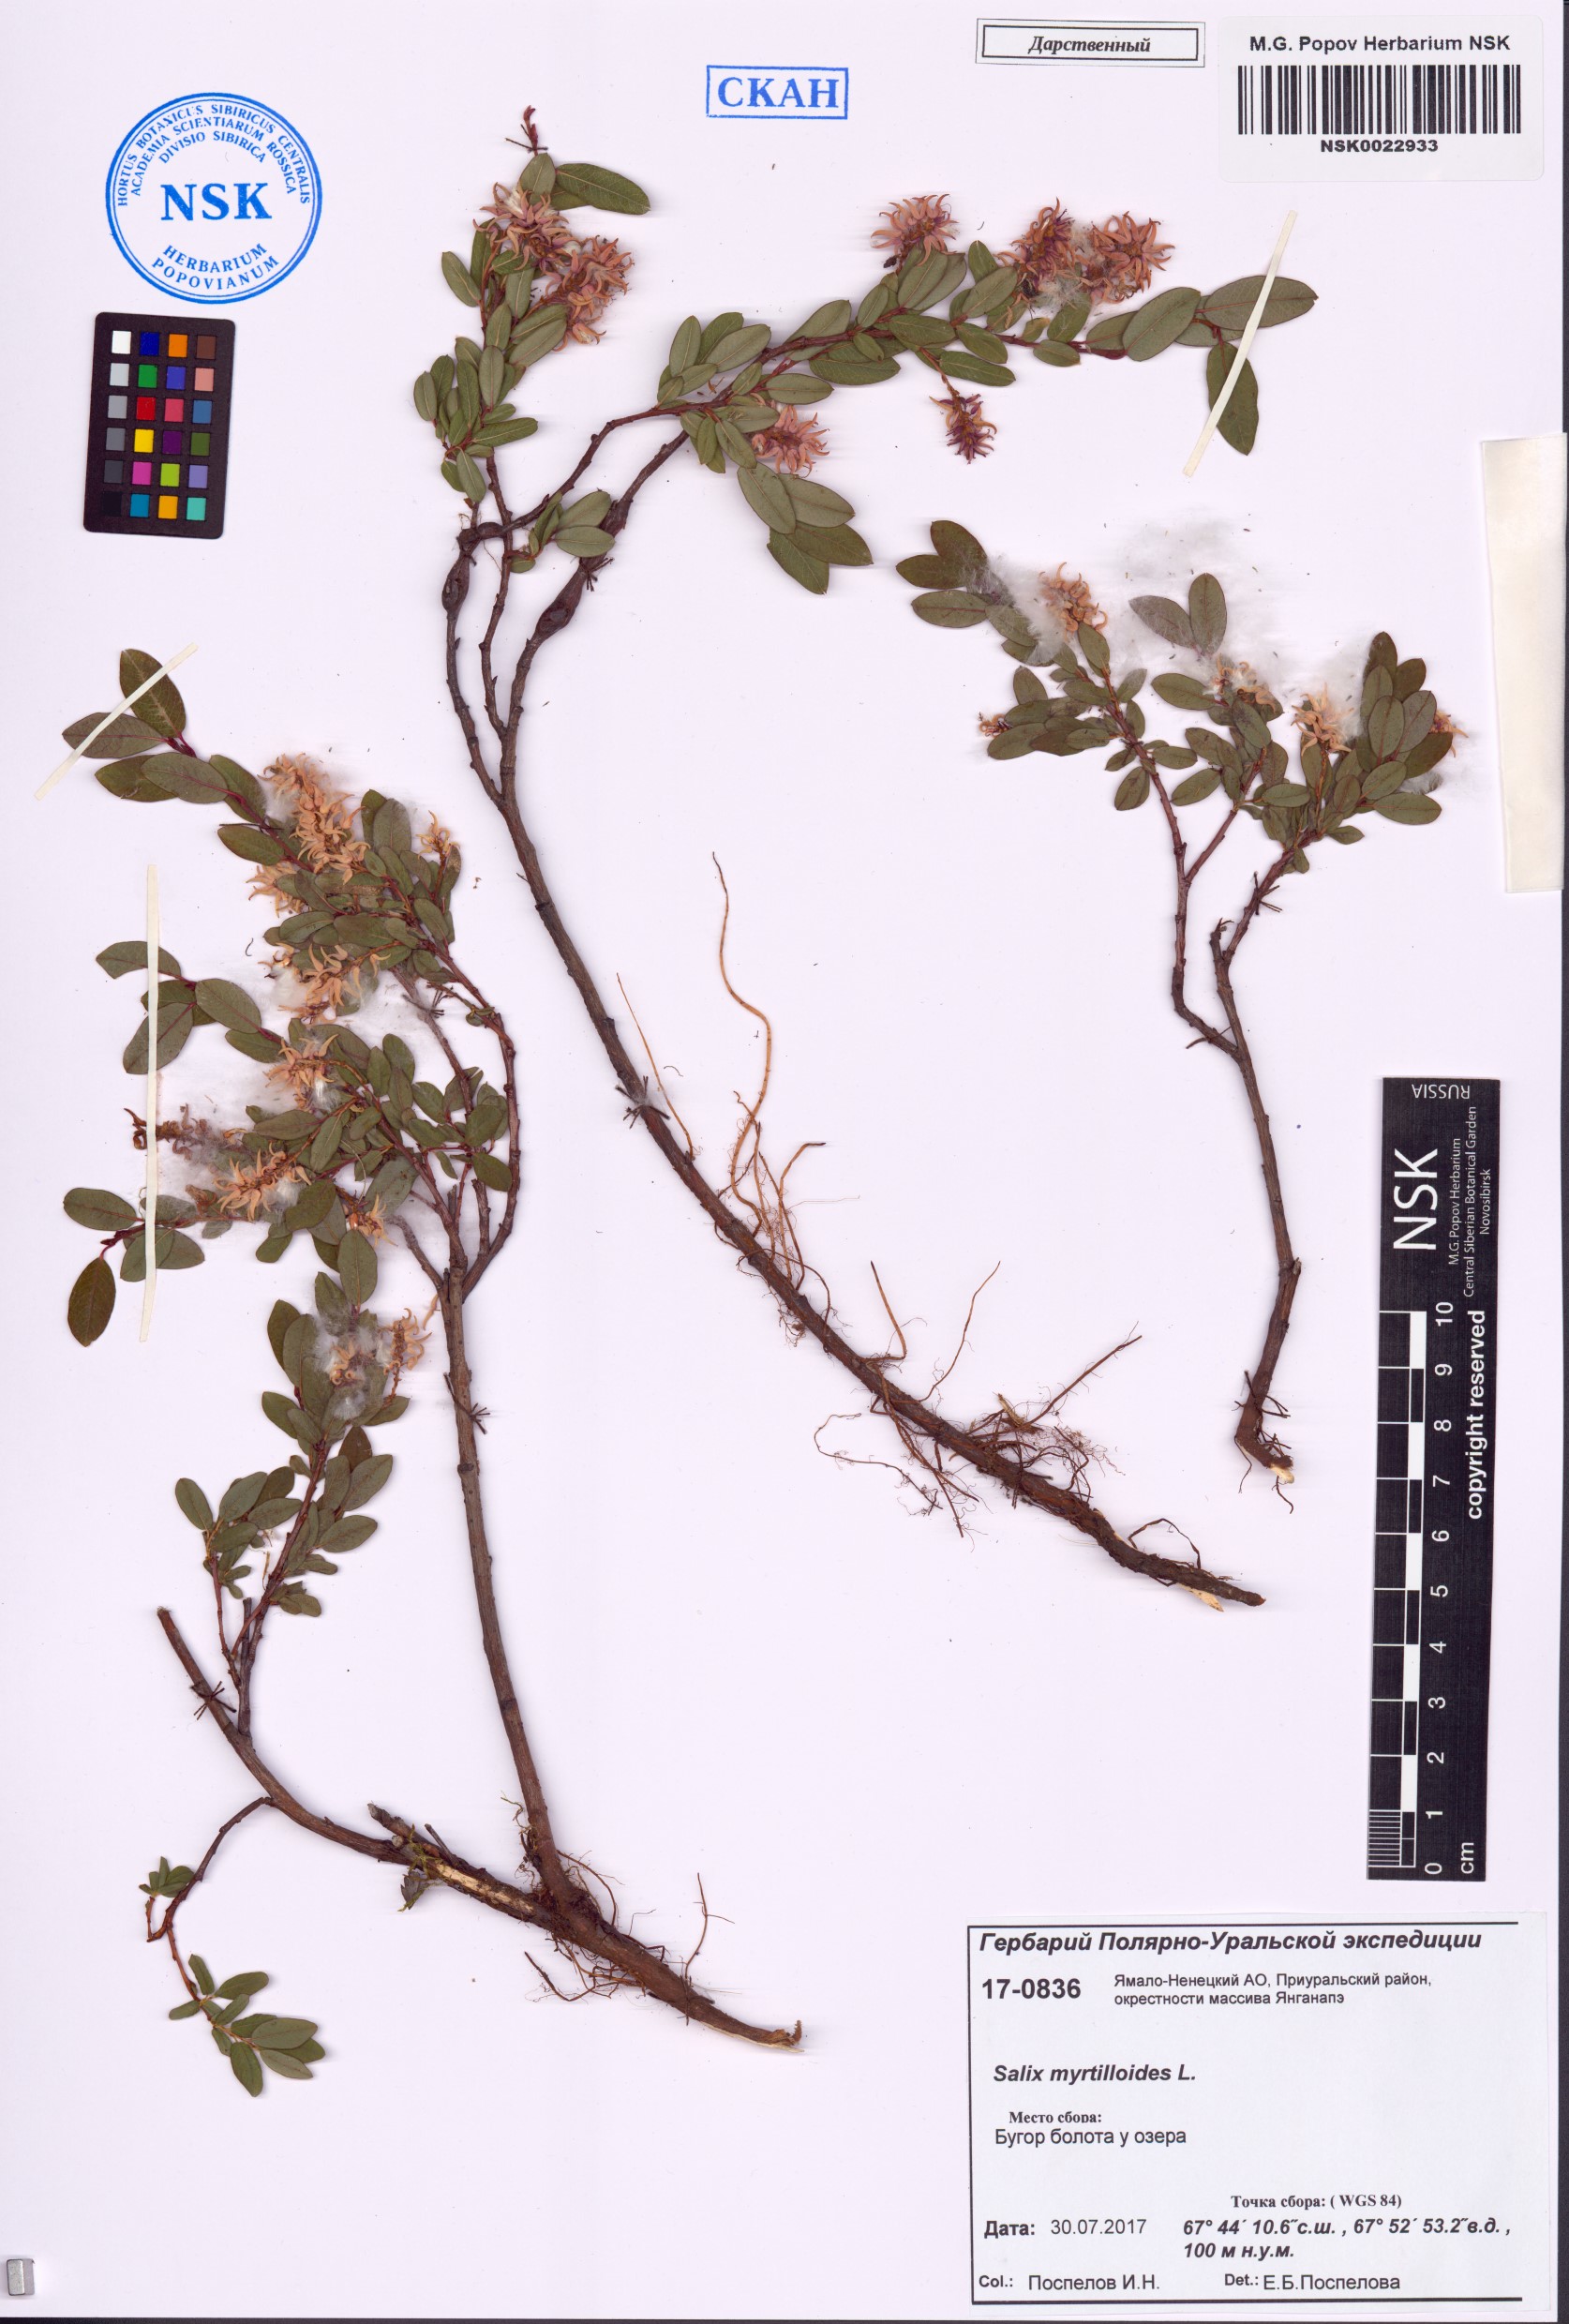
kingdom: Plantae
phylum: Tracheophyta
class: Magnoliopsida
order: Malpighiales
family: Salicaceae
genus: Salix
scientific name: Salix myrtilloides
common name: Myrtle-leaved willow
